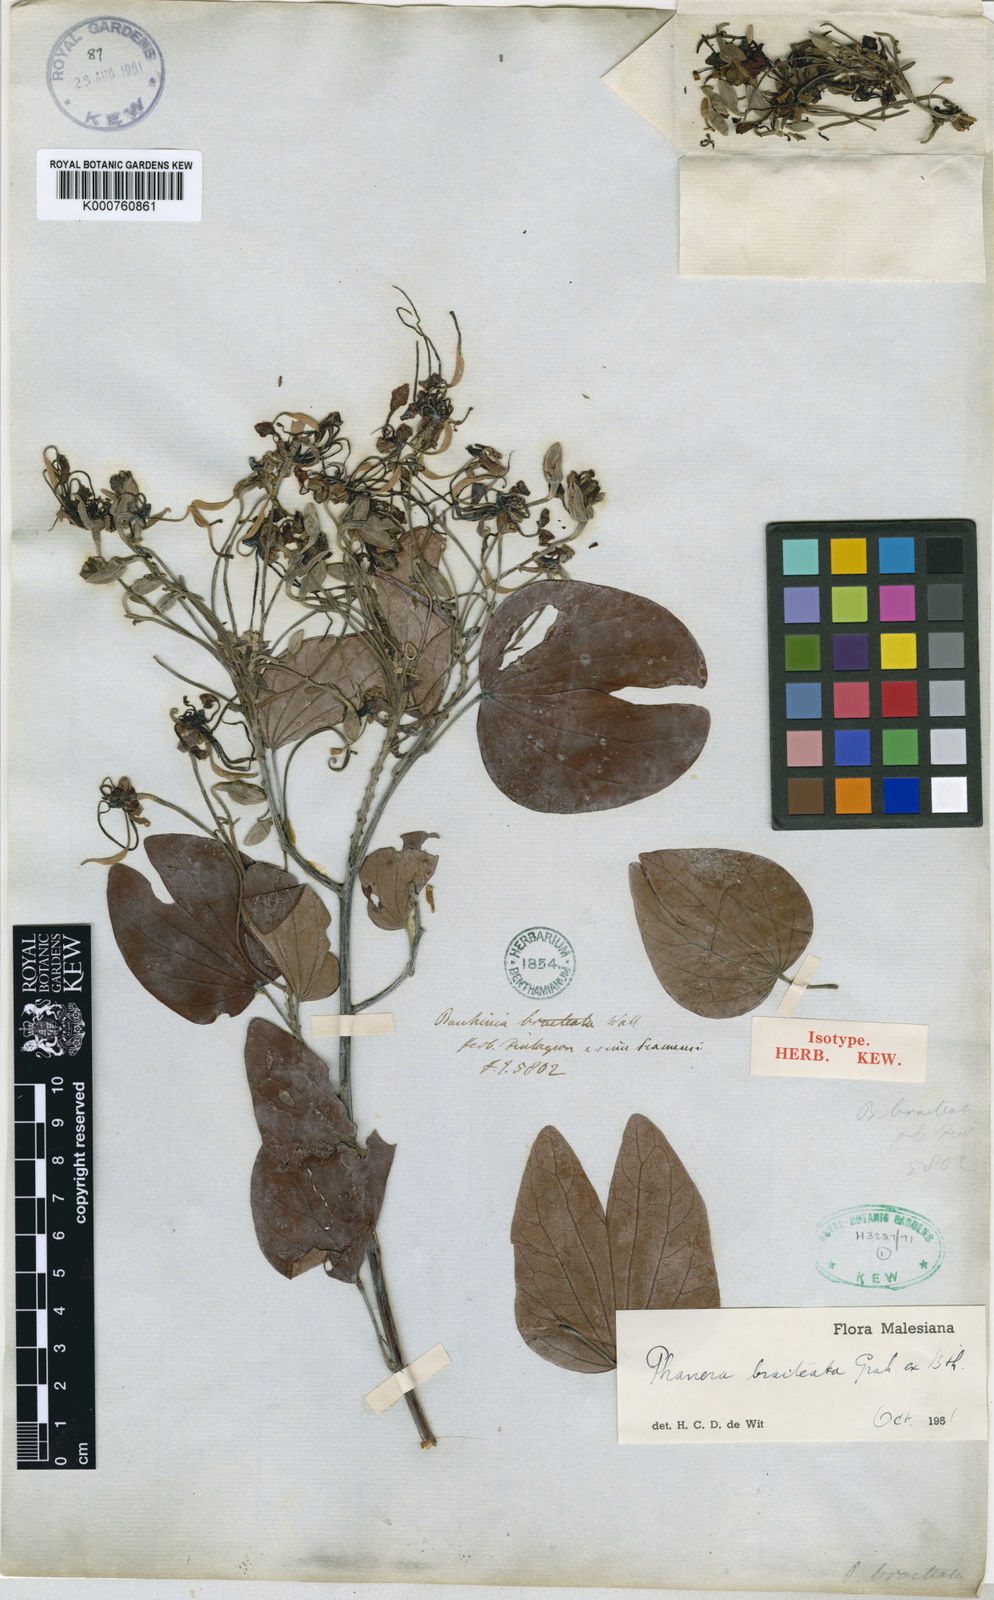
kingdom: Plantae
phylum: Tracheophyta
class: Magnoliopsida
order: Fabales
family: Fabaceae
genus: Phanera
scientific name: Phanera bracteata
